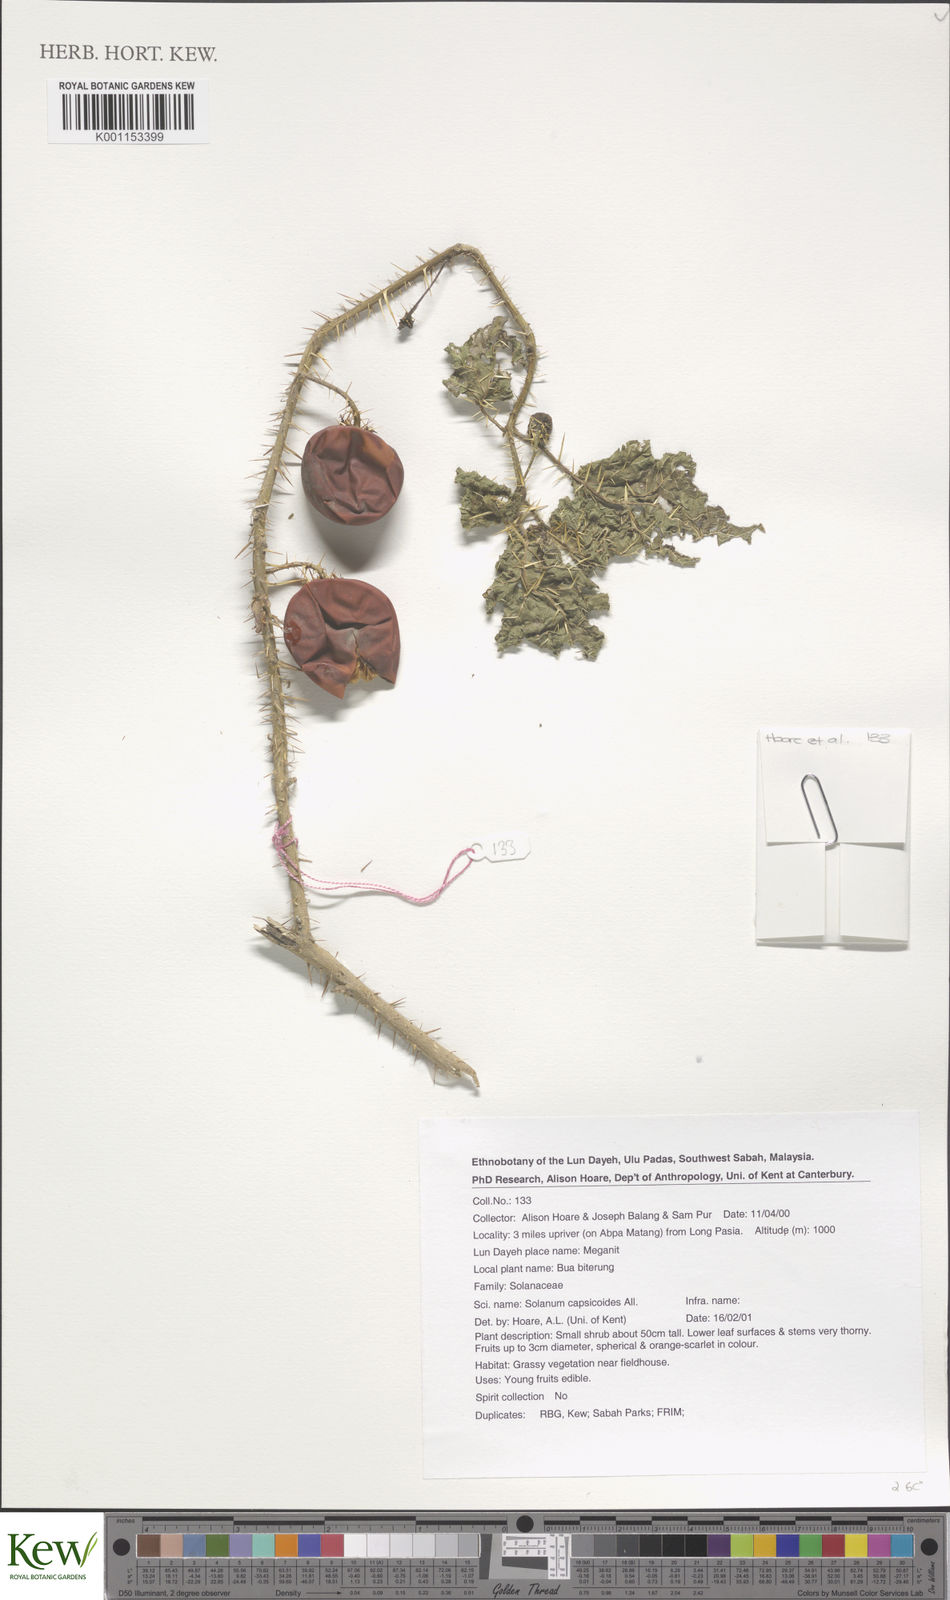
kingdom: Plantae
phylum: Tracheophyta
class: Magnoliopsida
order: Solanales
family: Solanaceae
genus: Solanum
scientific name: Solanum capsicoides
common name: Cockroach berry
